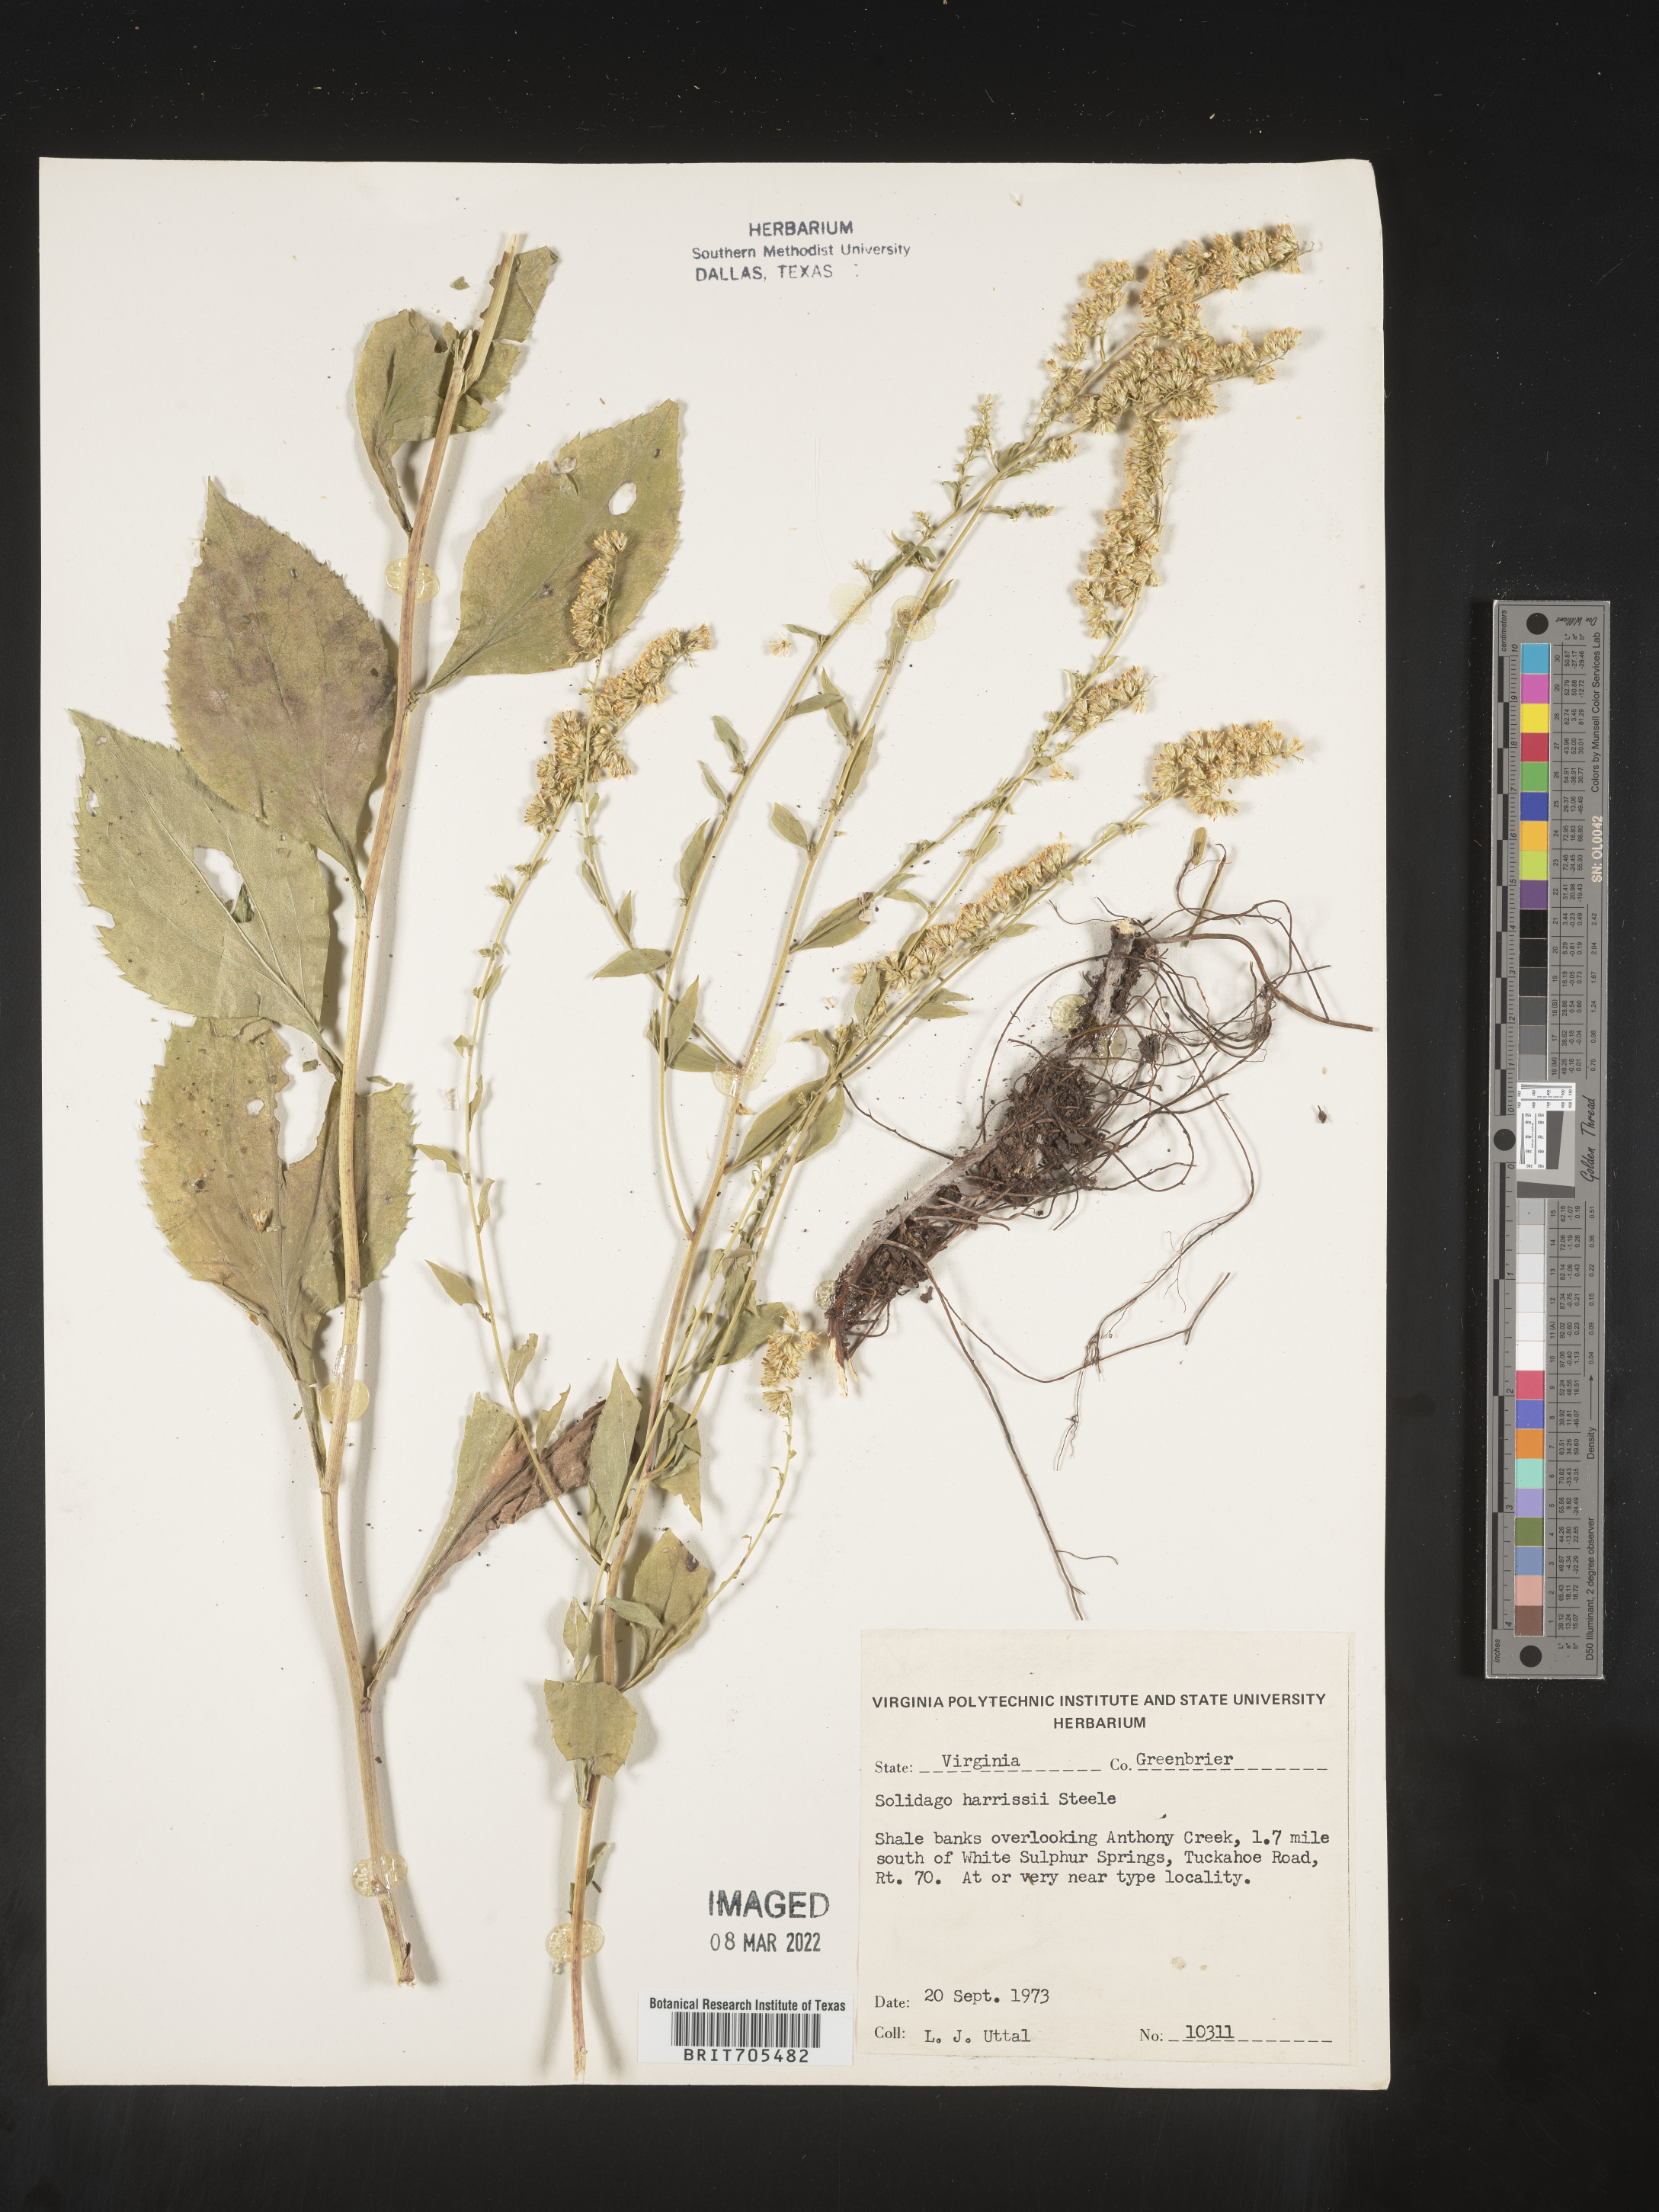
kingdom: Plantae
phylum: Tracheophyta
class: Magnoliopsida
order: Asterales
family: Asteraceae
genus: Euthamia
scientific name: Euthamia caroliniana
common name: Coastal plain goldentop
